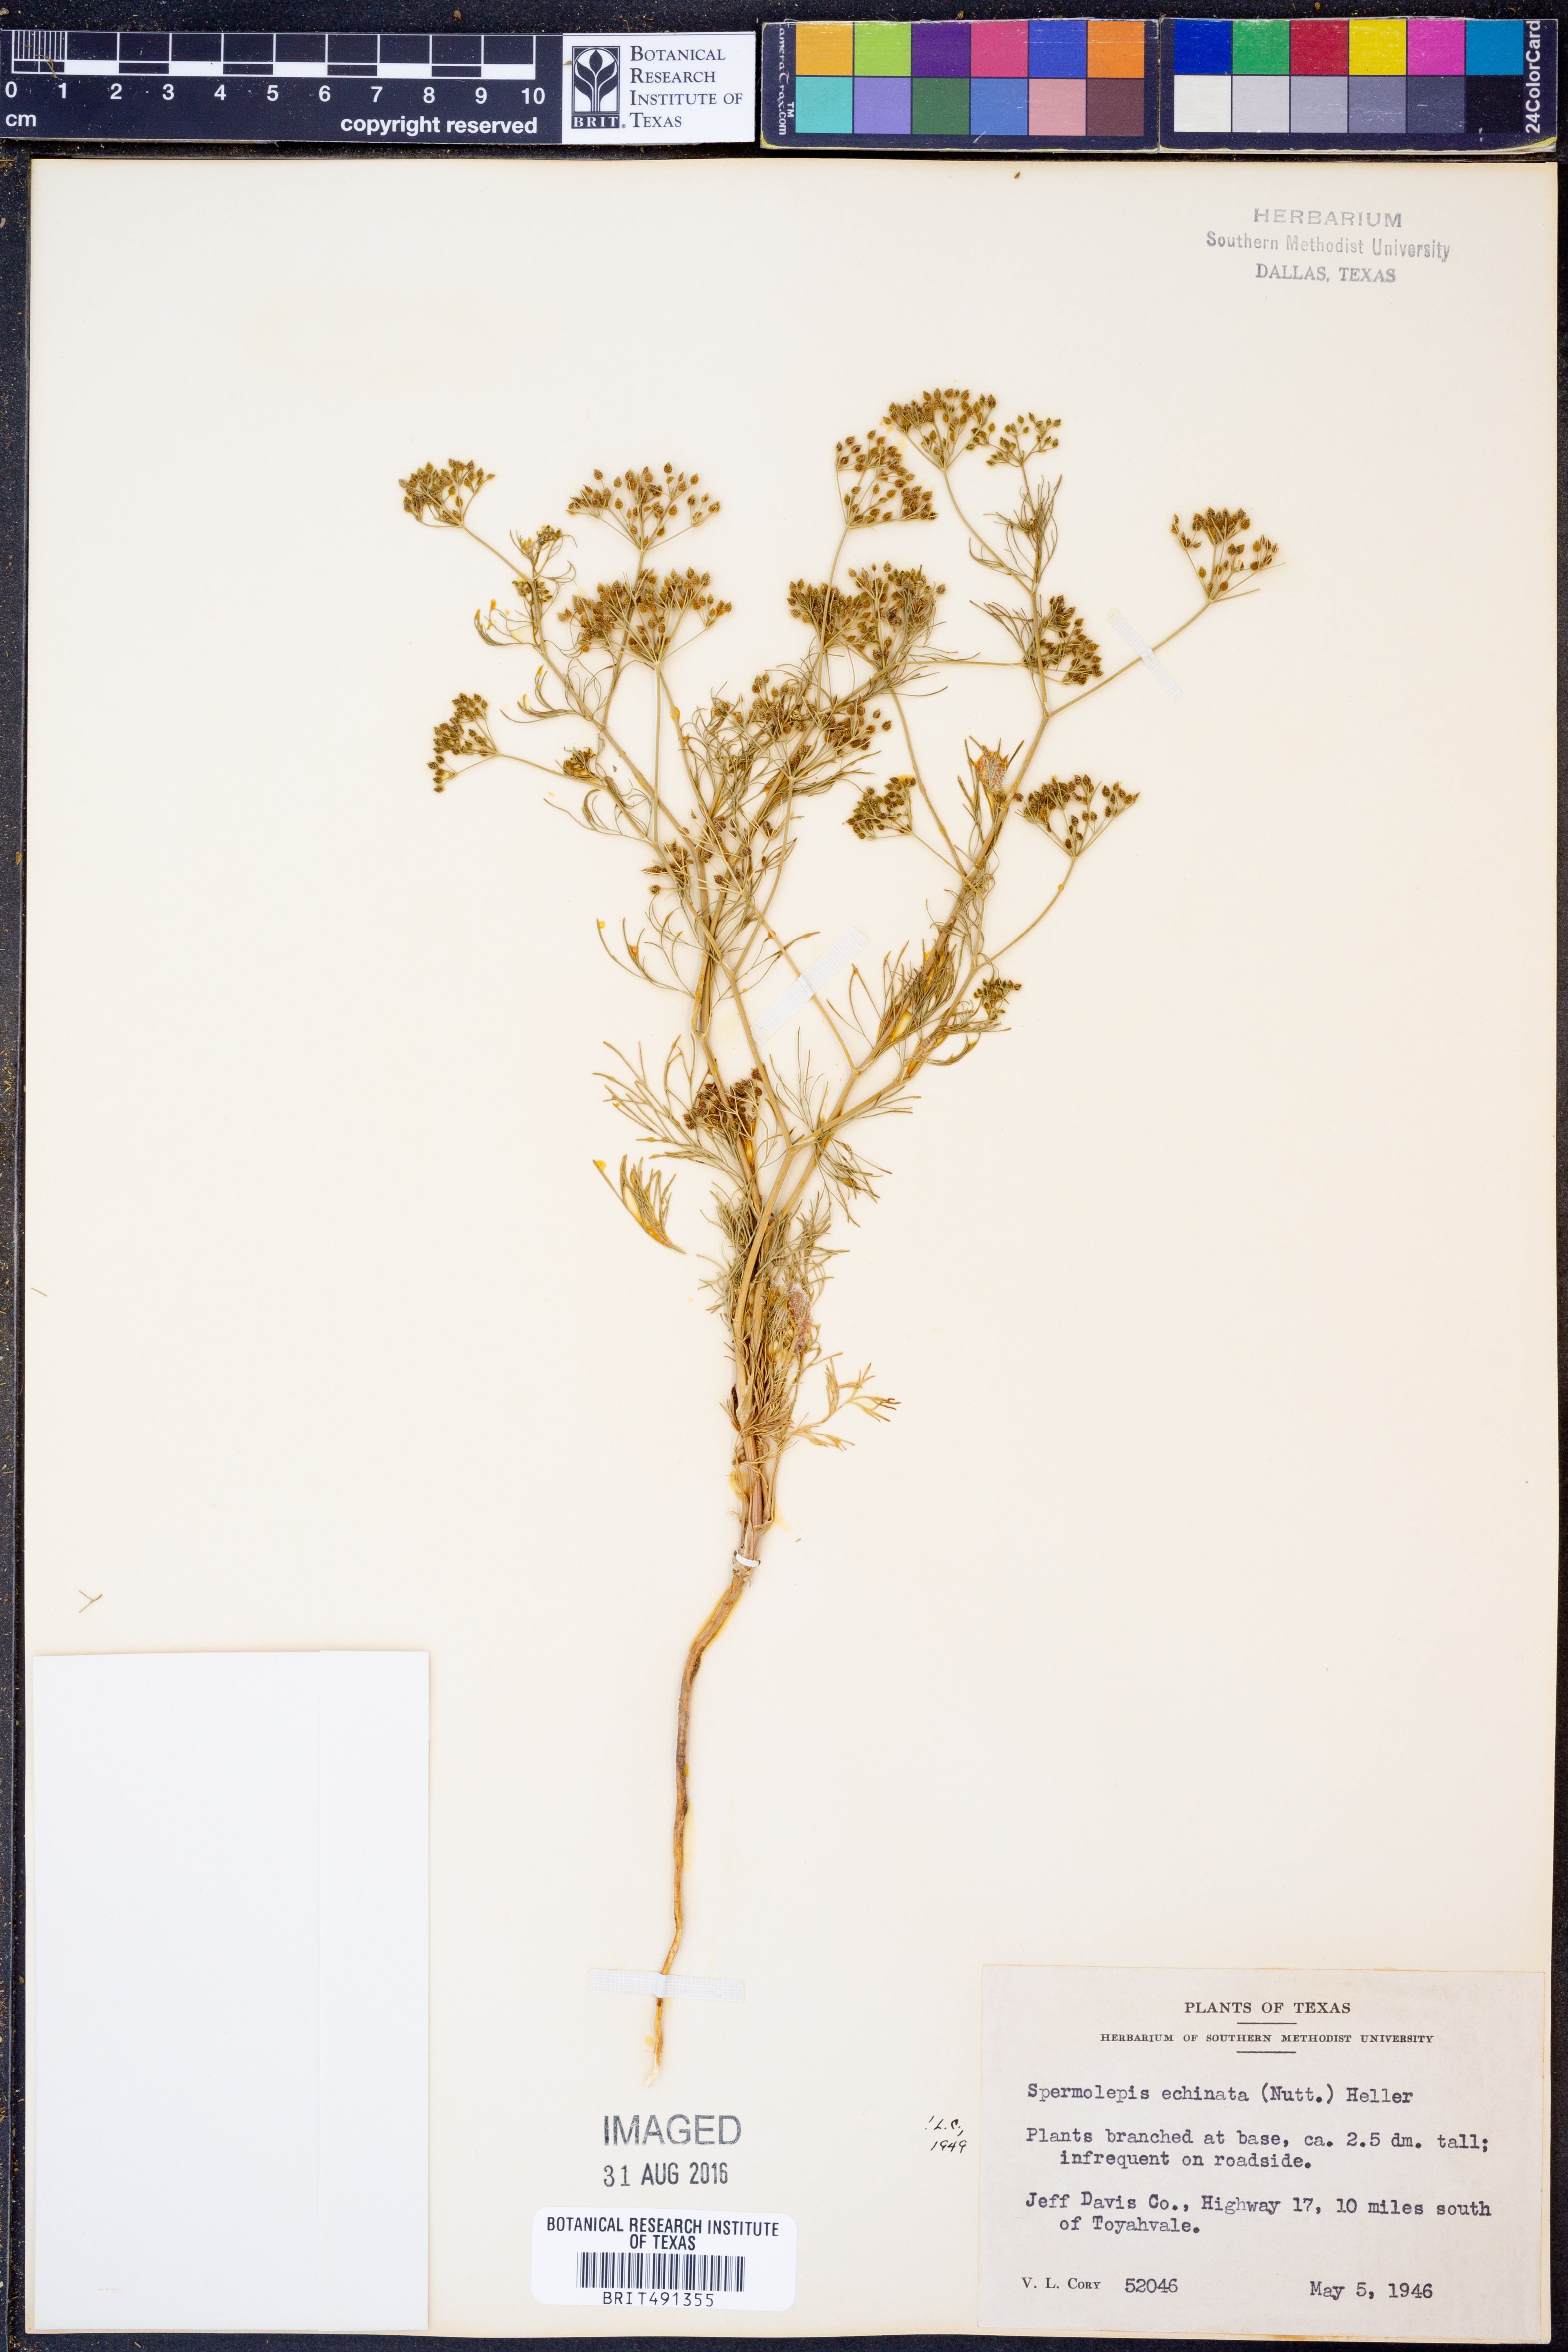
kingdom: Plantae
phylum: Tracheophyta
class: Magnoliopsida
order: Apiales
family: Apiaceae
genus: Spermolepis
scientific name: Spermolepis echinata
